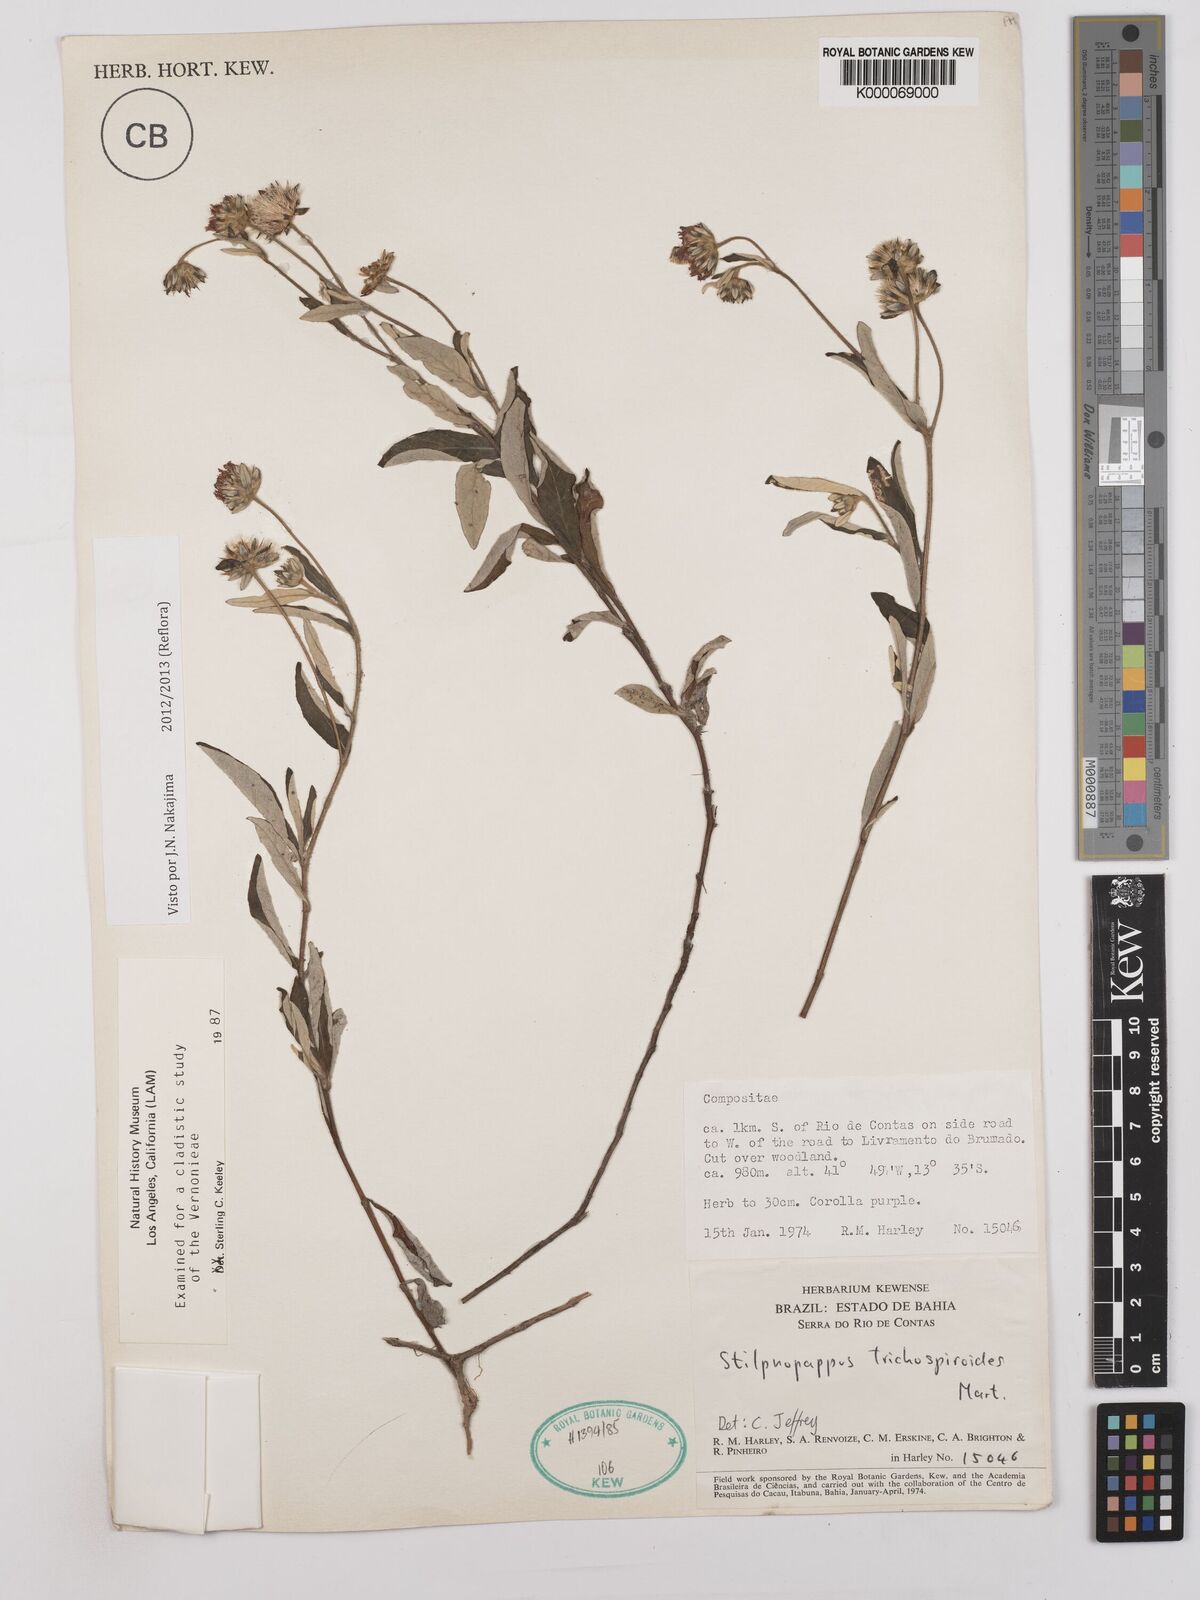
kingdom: Plantae
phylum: Tracheophyta
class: Magnoliopsida
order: Asterales
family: Asteraceae
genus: Stilpnopappus
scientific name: Stilpnopappus
